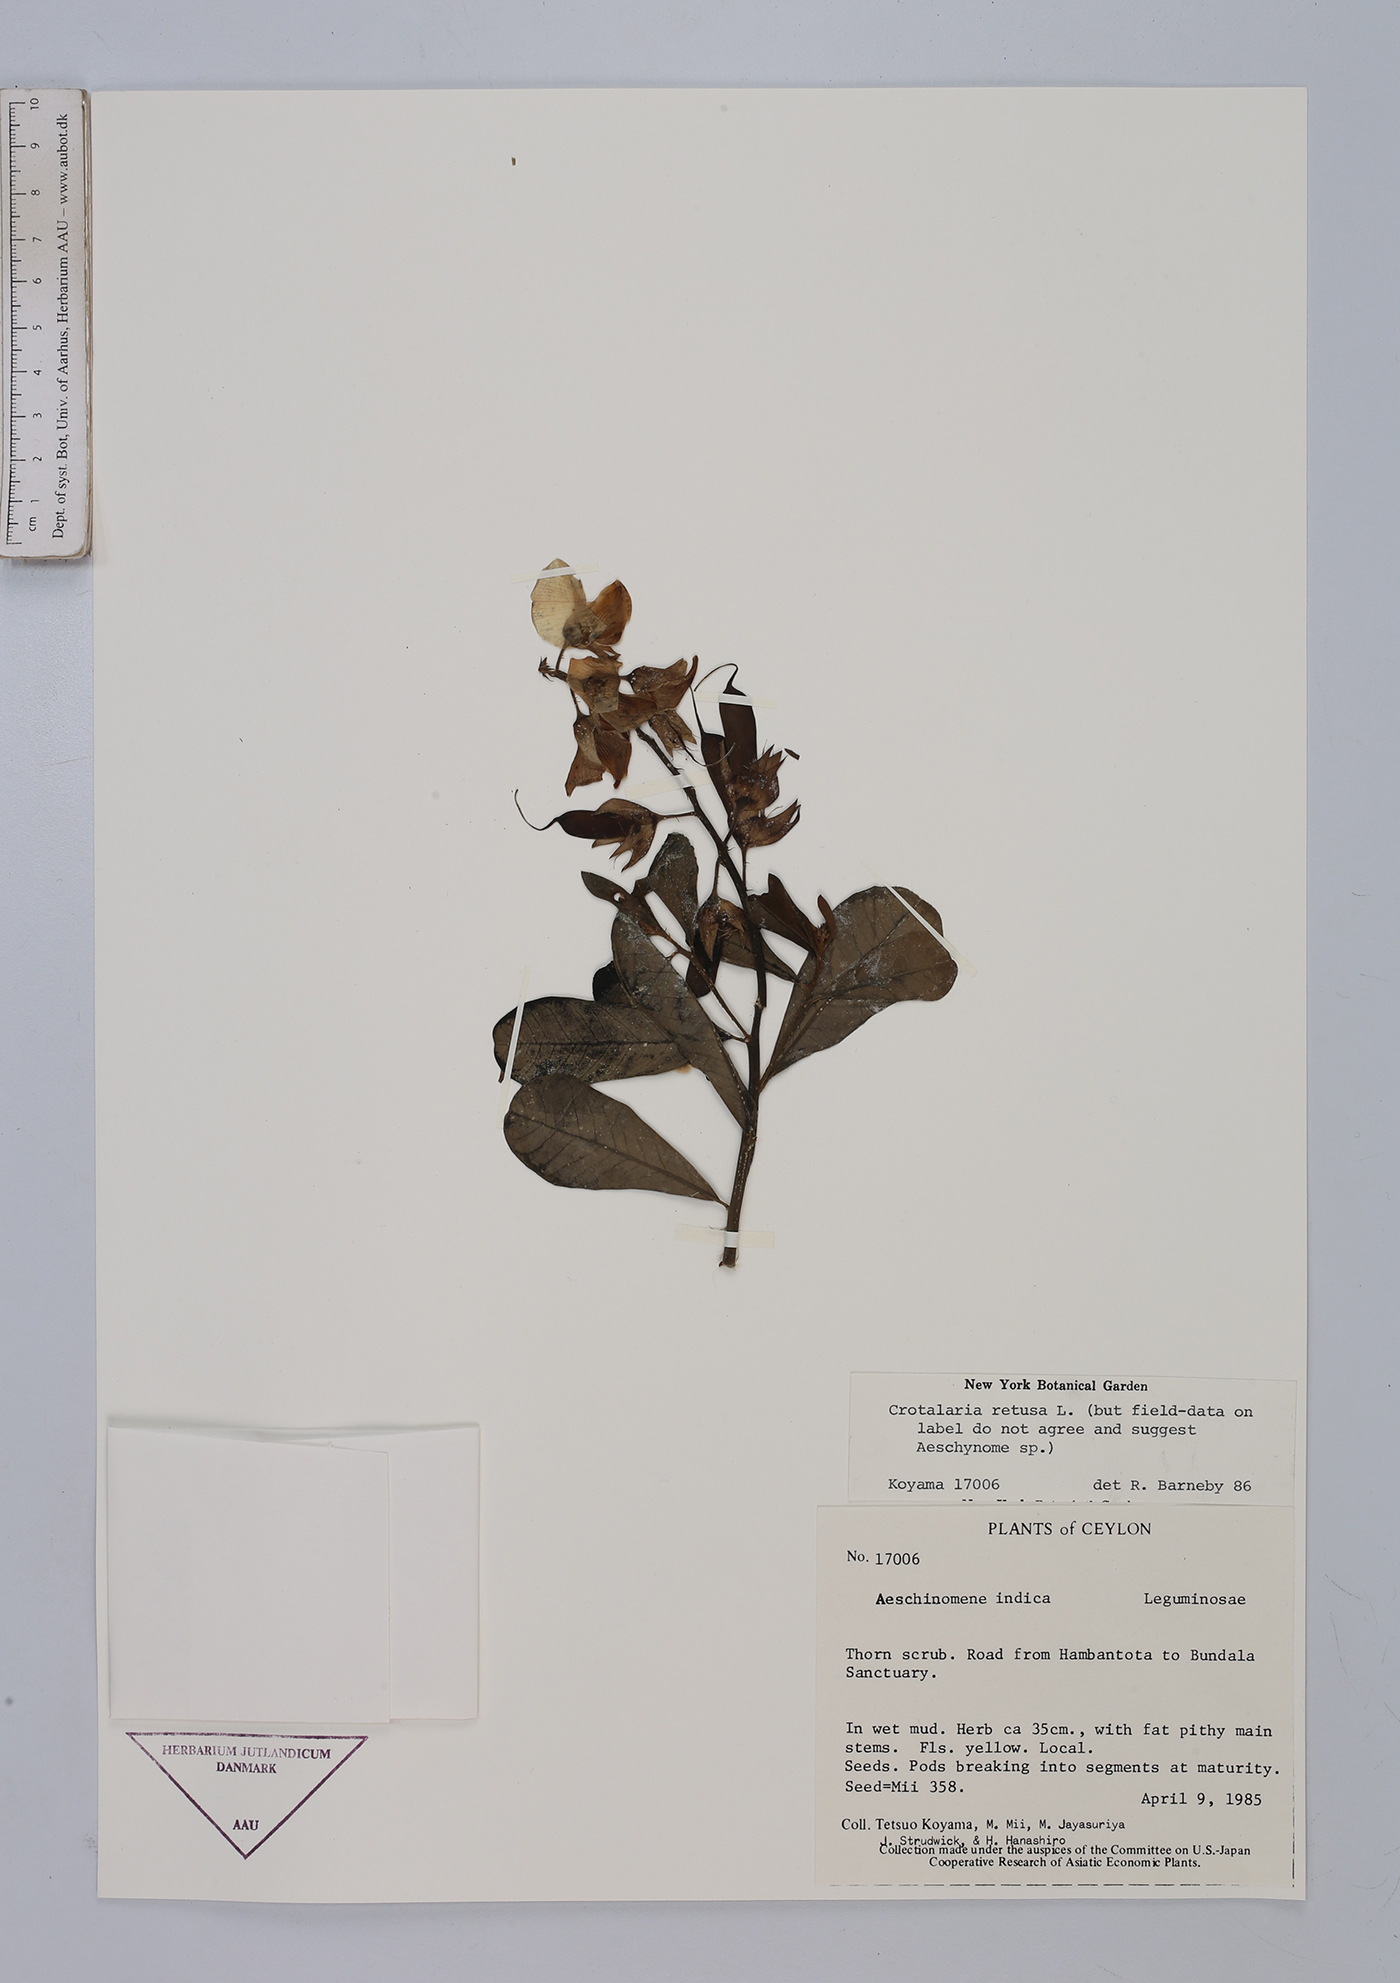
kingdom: Plantae
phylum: Tracheophyta
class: Magnoliopsida
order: Fabales
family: Fabaceae
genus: Crotalaria
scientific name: Crotalaria retusa
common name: Rattleweed
